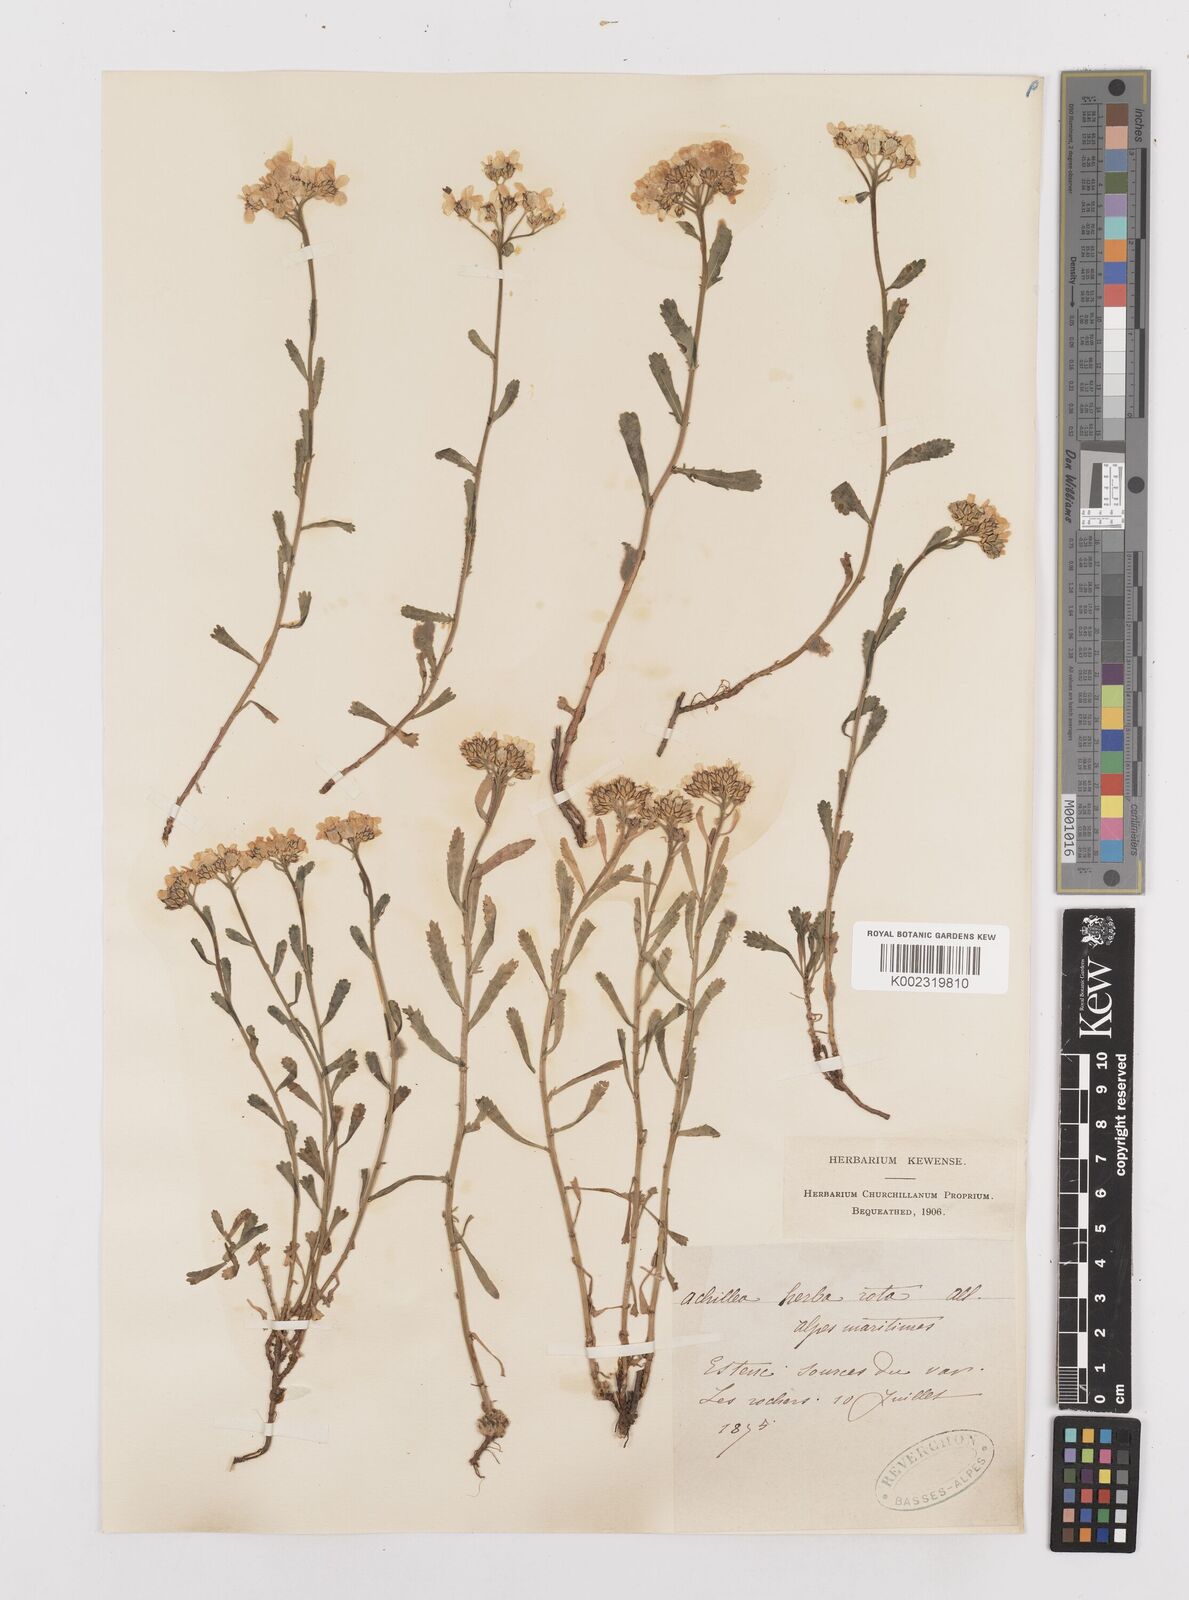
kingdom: Plantae
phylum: Tracheophyta
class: Magnoliopsida
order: Asterales
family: Asteraceae
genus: Achillea
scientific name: Achillea erba-rotta
